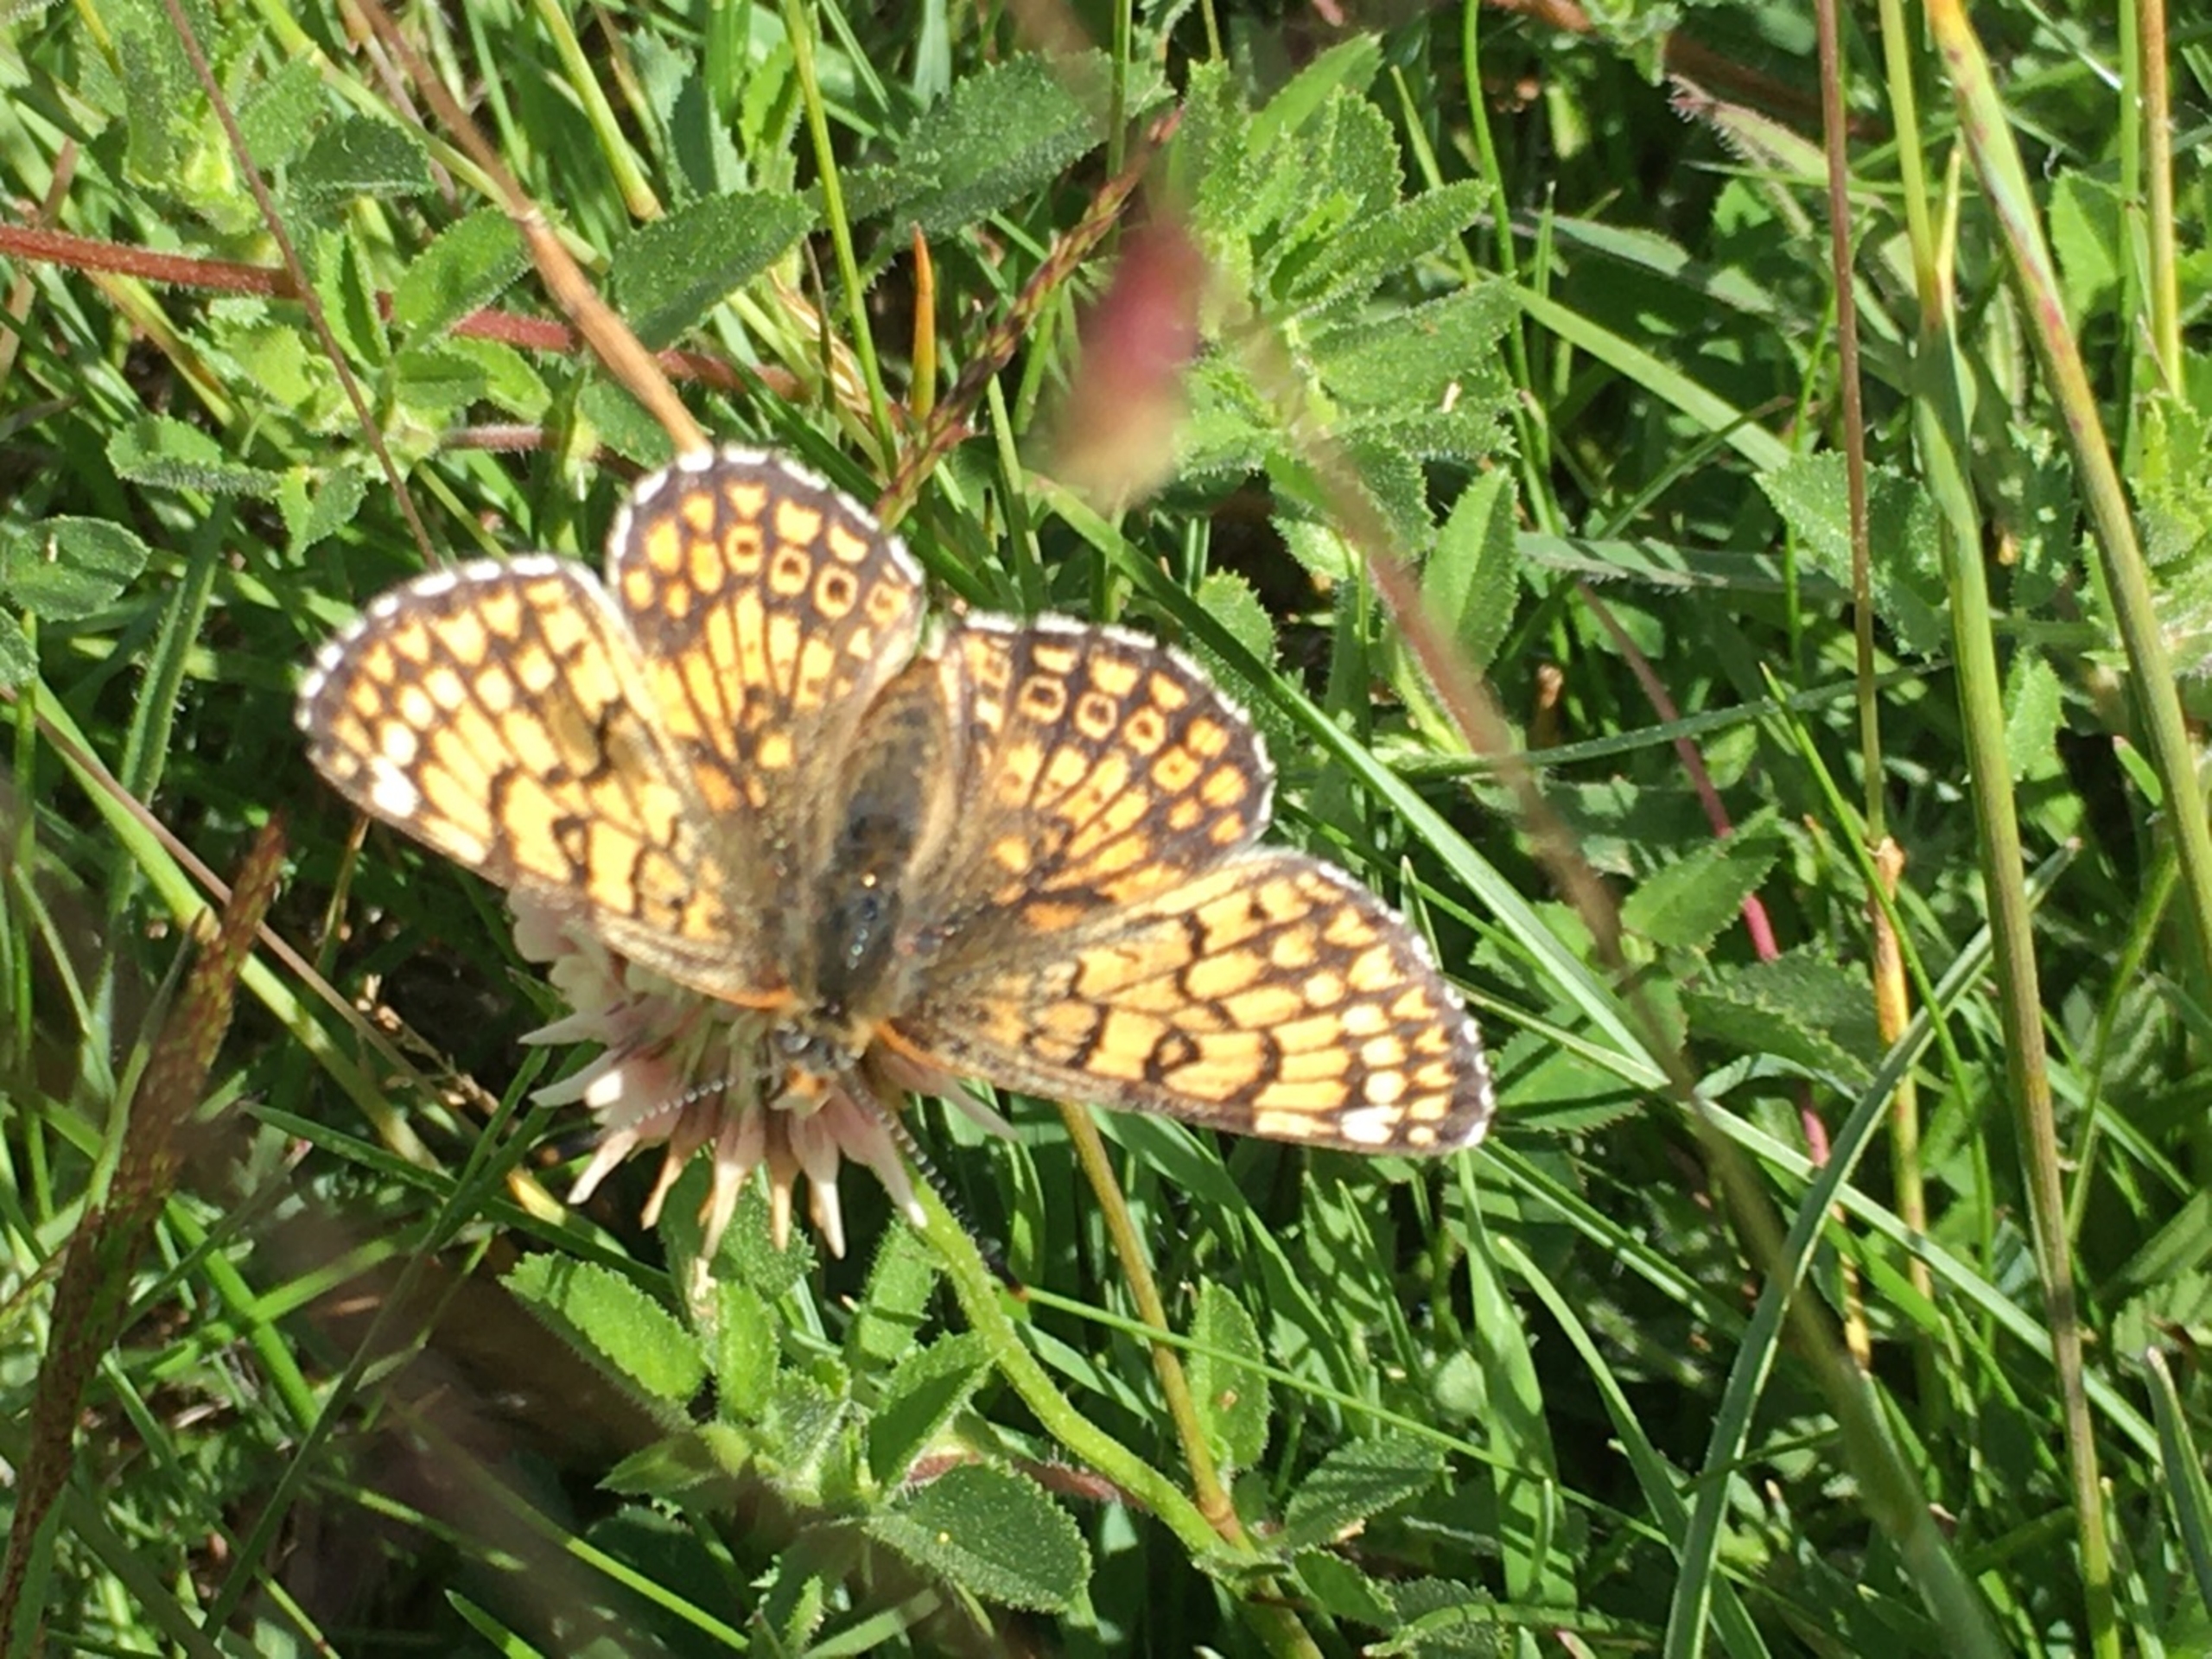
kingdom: Animalia
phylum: Arthropoda
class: Insecta
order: Lepidoptera
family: Nymphalidae
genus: Melitaea
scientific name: Melitaea cinxia
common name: Okkergul pletvinge
